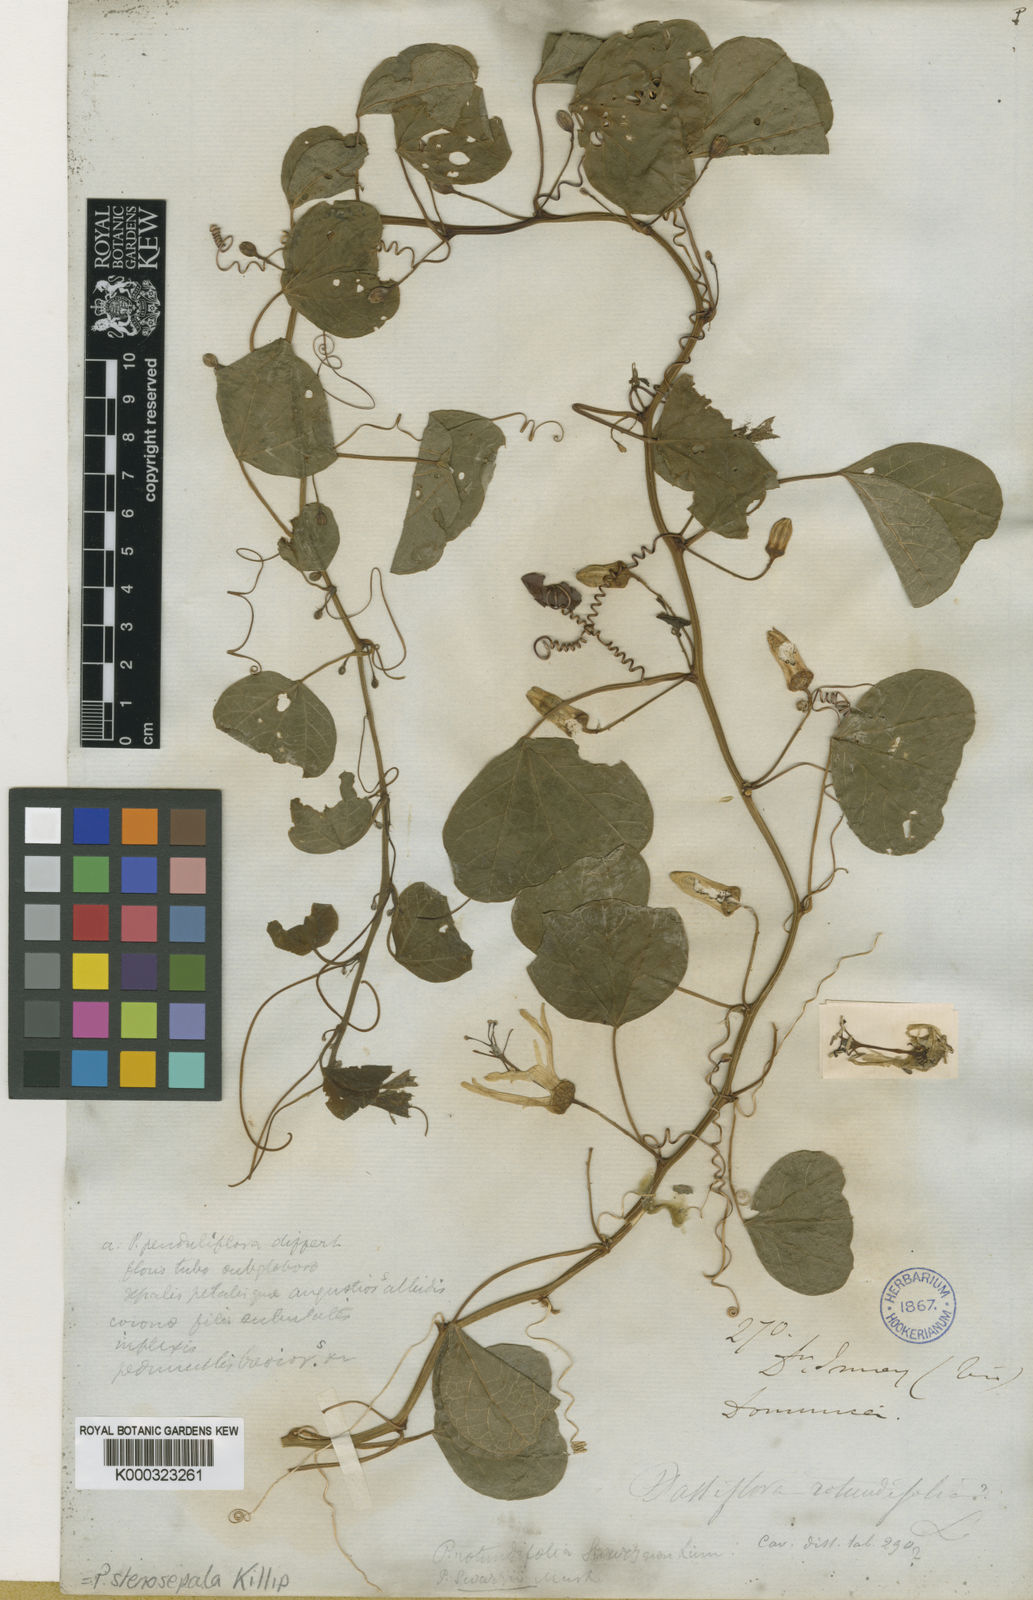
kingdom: Plantae
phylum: Tracheophyta
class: Magnoliopsida
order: Malpighiales
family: Passifloraceae
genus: Passiflora
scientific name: Passiflora stenosepala
